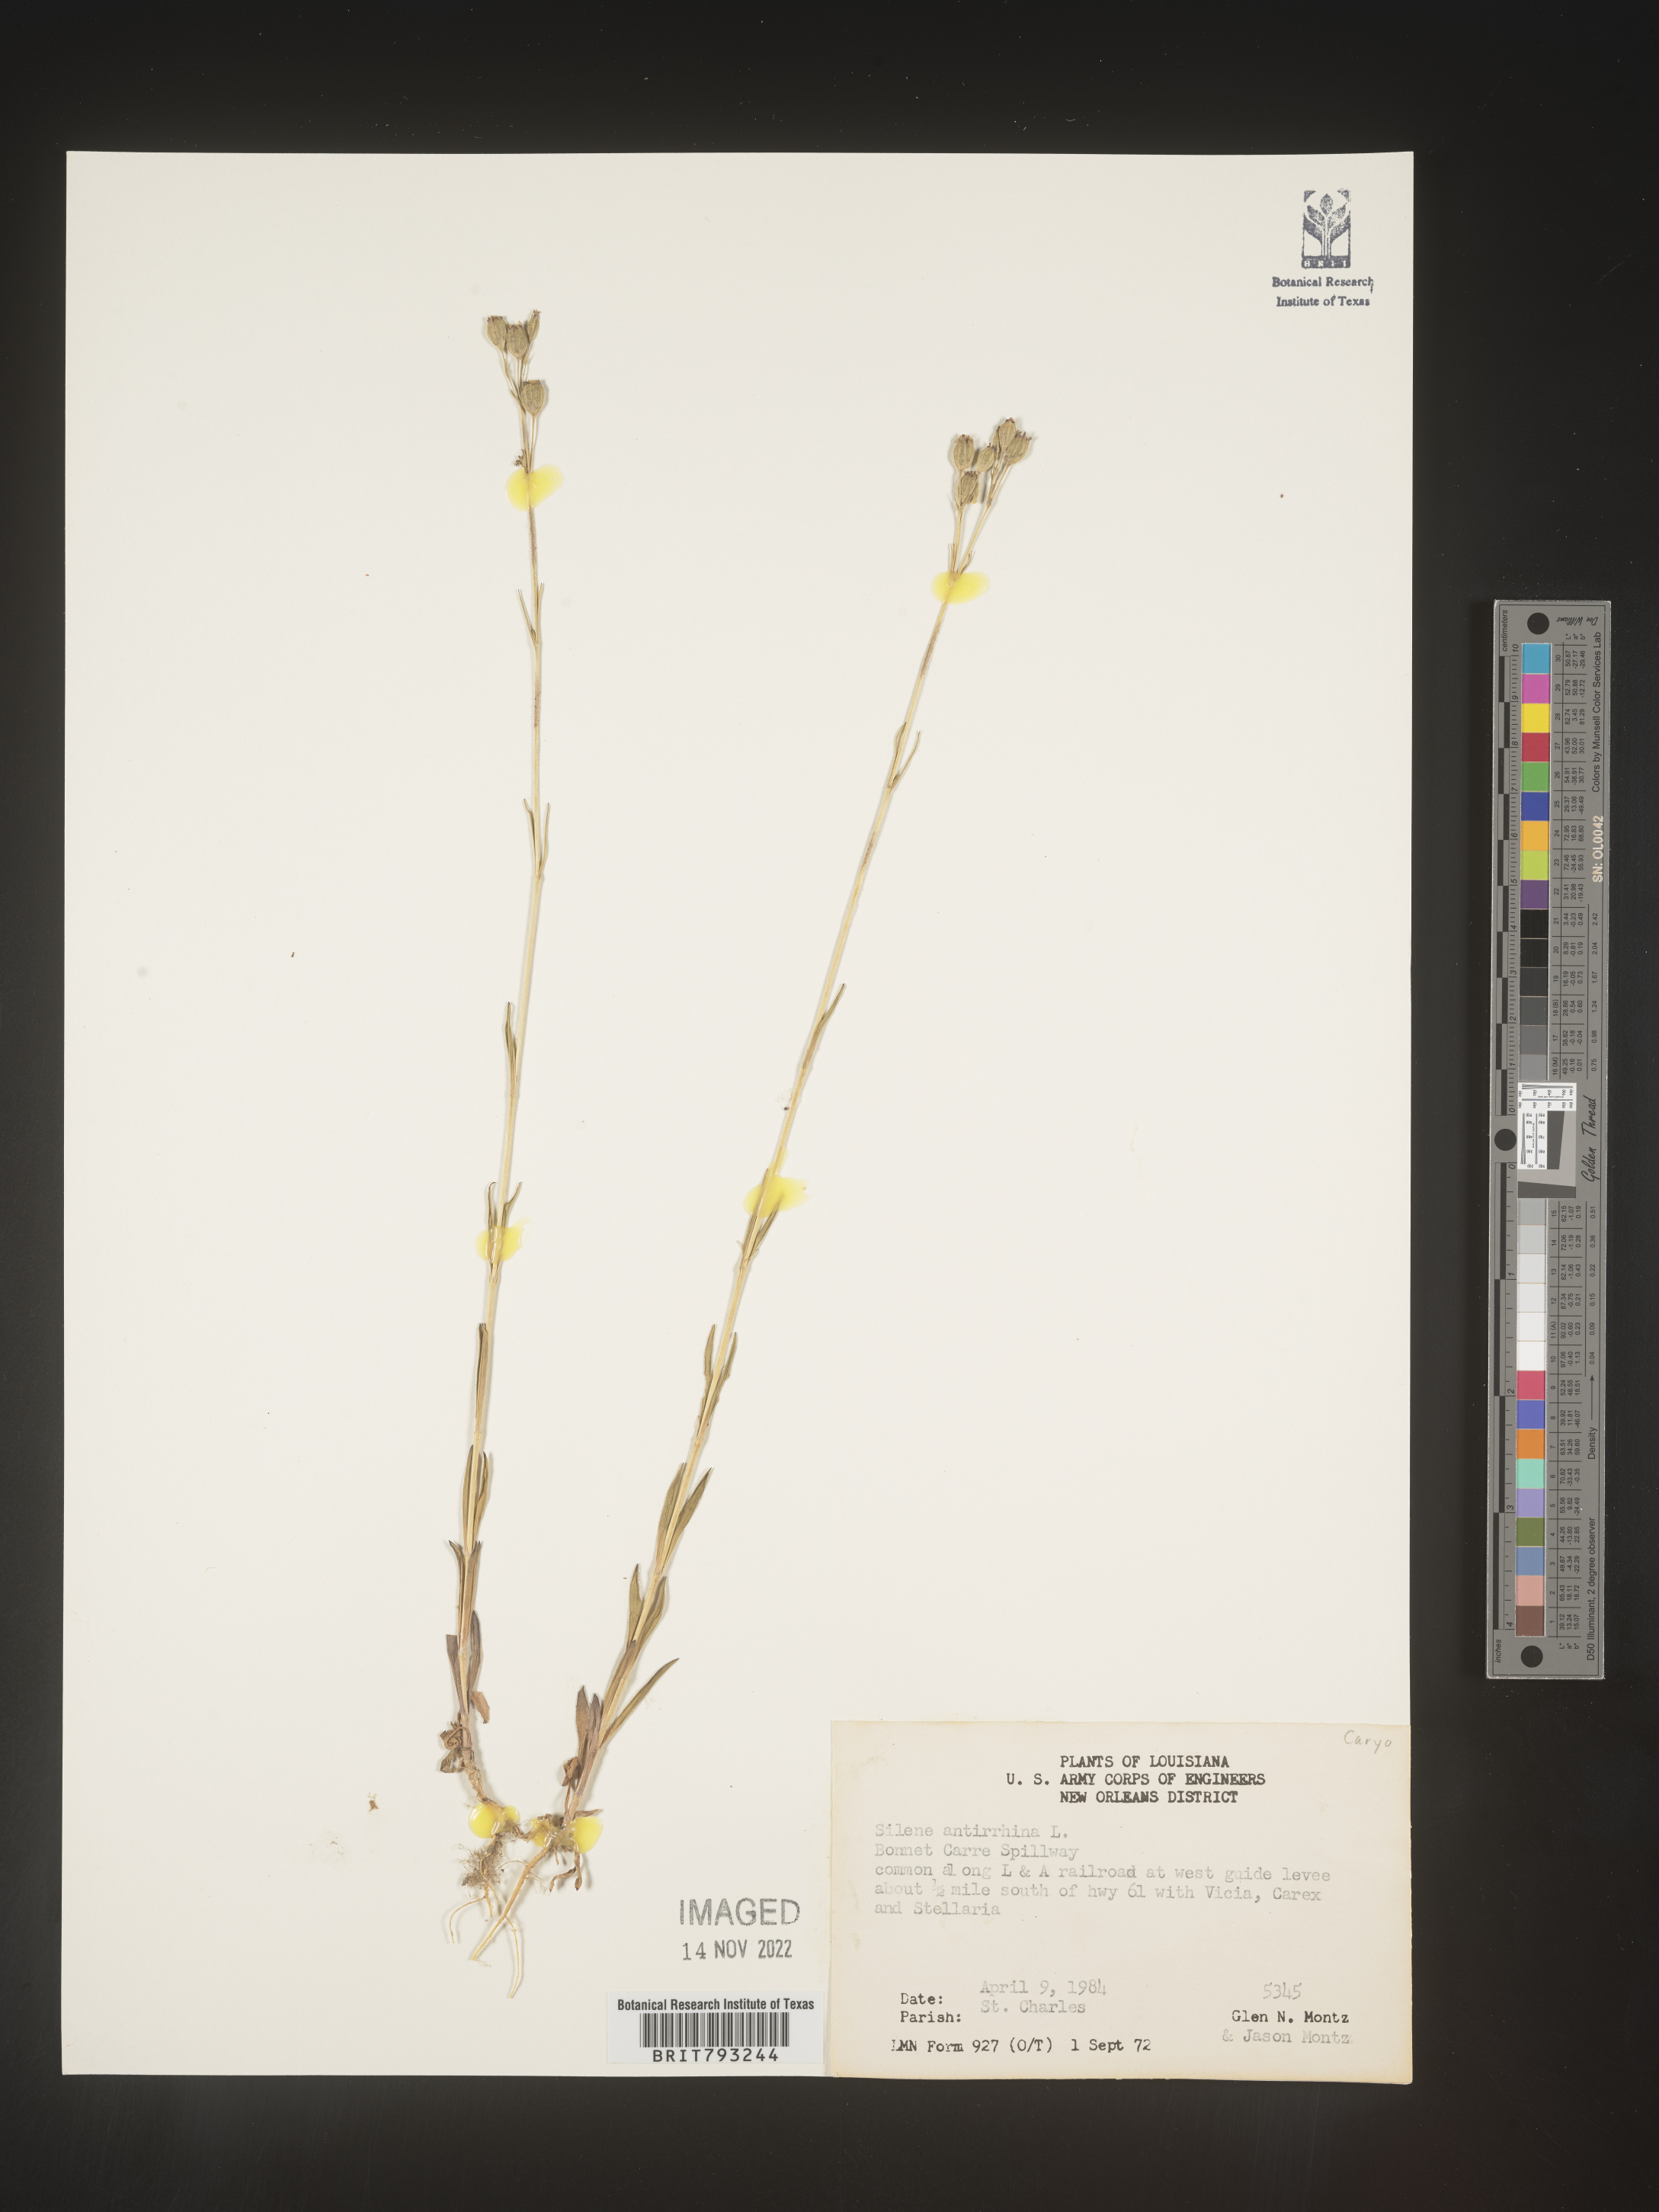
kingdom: Plantae
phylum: Tracheophyta
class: Magnoliopsida
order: Caryophyllales
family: Caryophyllaceae
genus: Silene
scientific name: Silene antirrhina
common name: Sleepy catchfly
